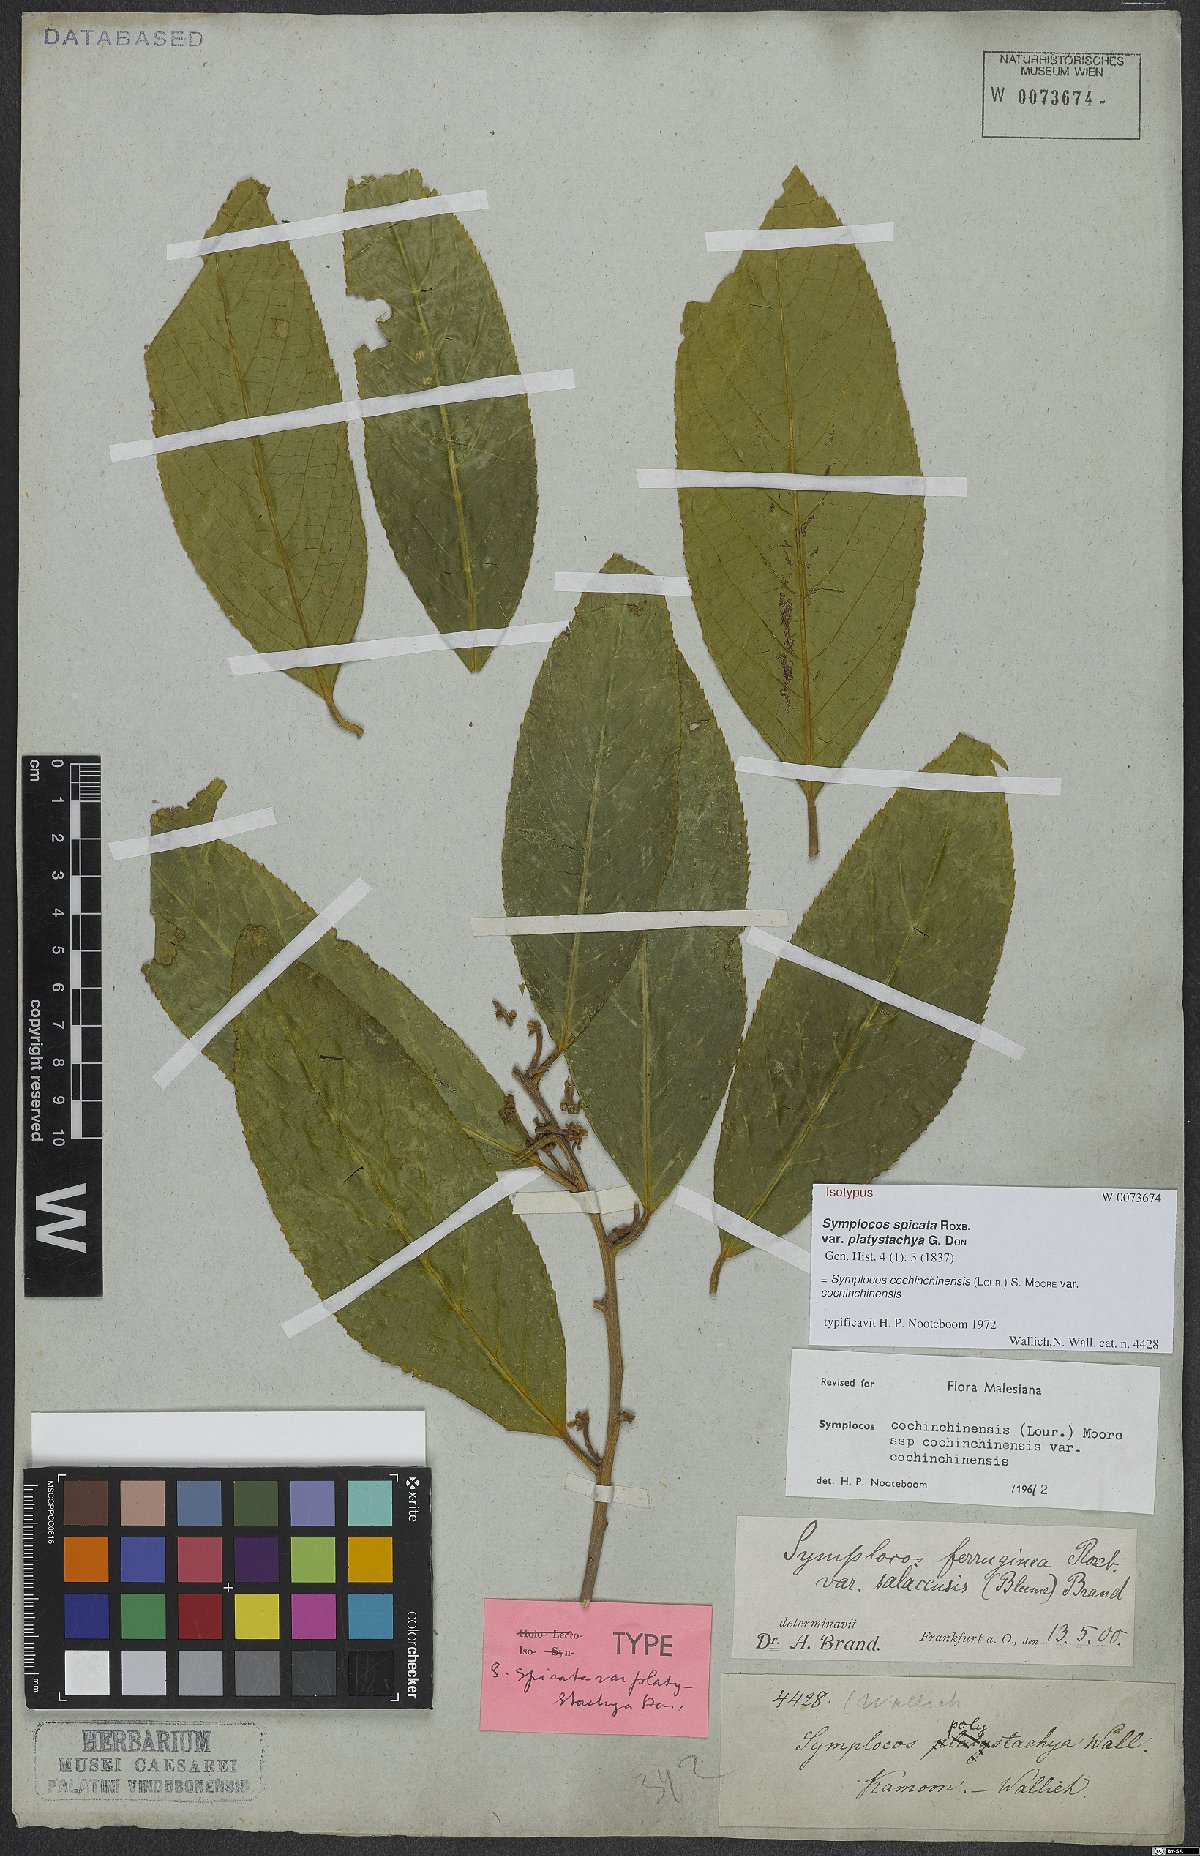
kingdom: Plantae
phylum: Tracheophyta
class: Magnoliopsida
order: Ericales
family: Symplocaceae
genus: Symplocos
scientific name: Symplocos cochinchinensis
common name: Buff hazelwood
